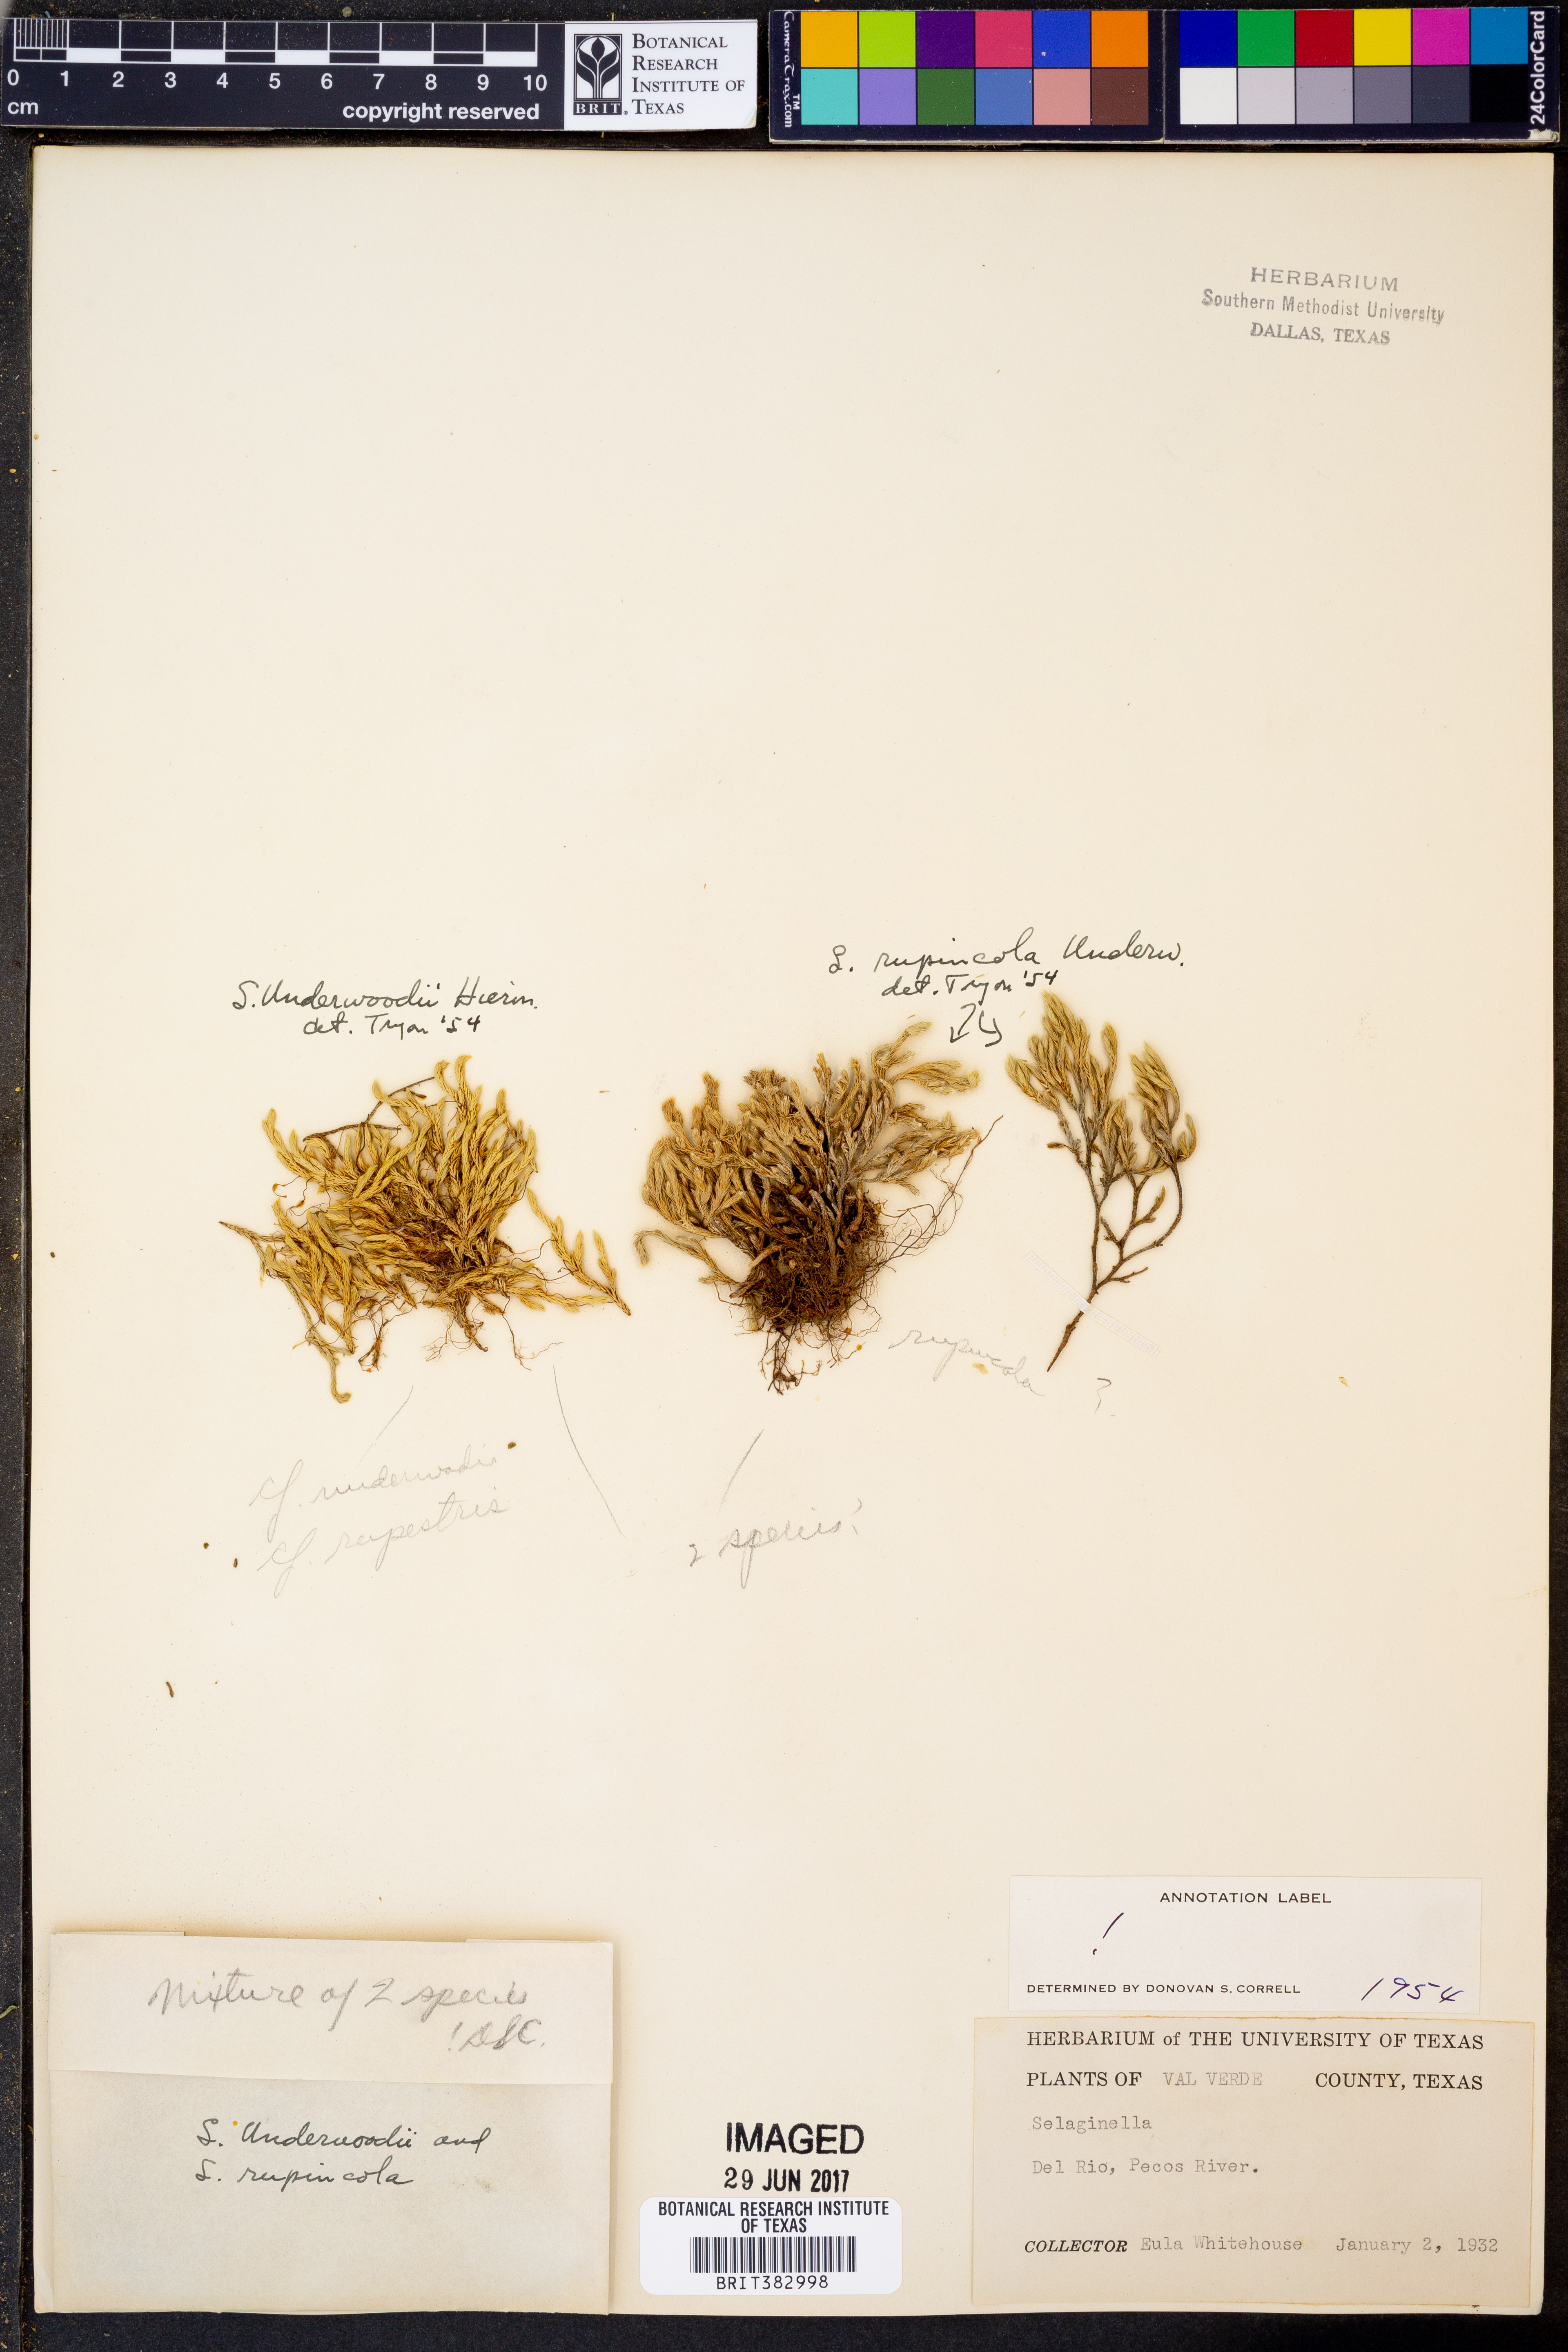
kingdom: Plantae
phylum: Tracheophyta
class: Lycopodiopsida
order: Selaginellales
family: Selaginellaceae
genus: Selaginella
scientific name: Selaginella
